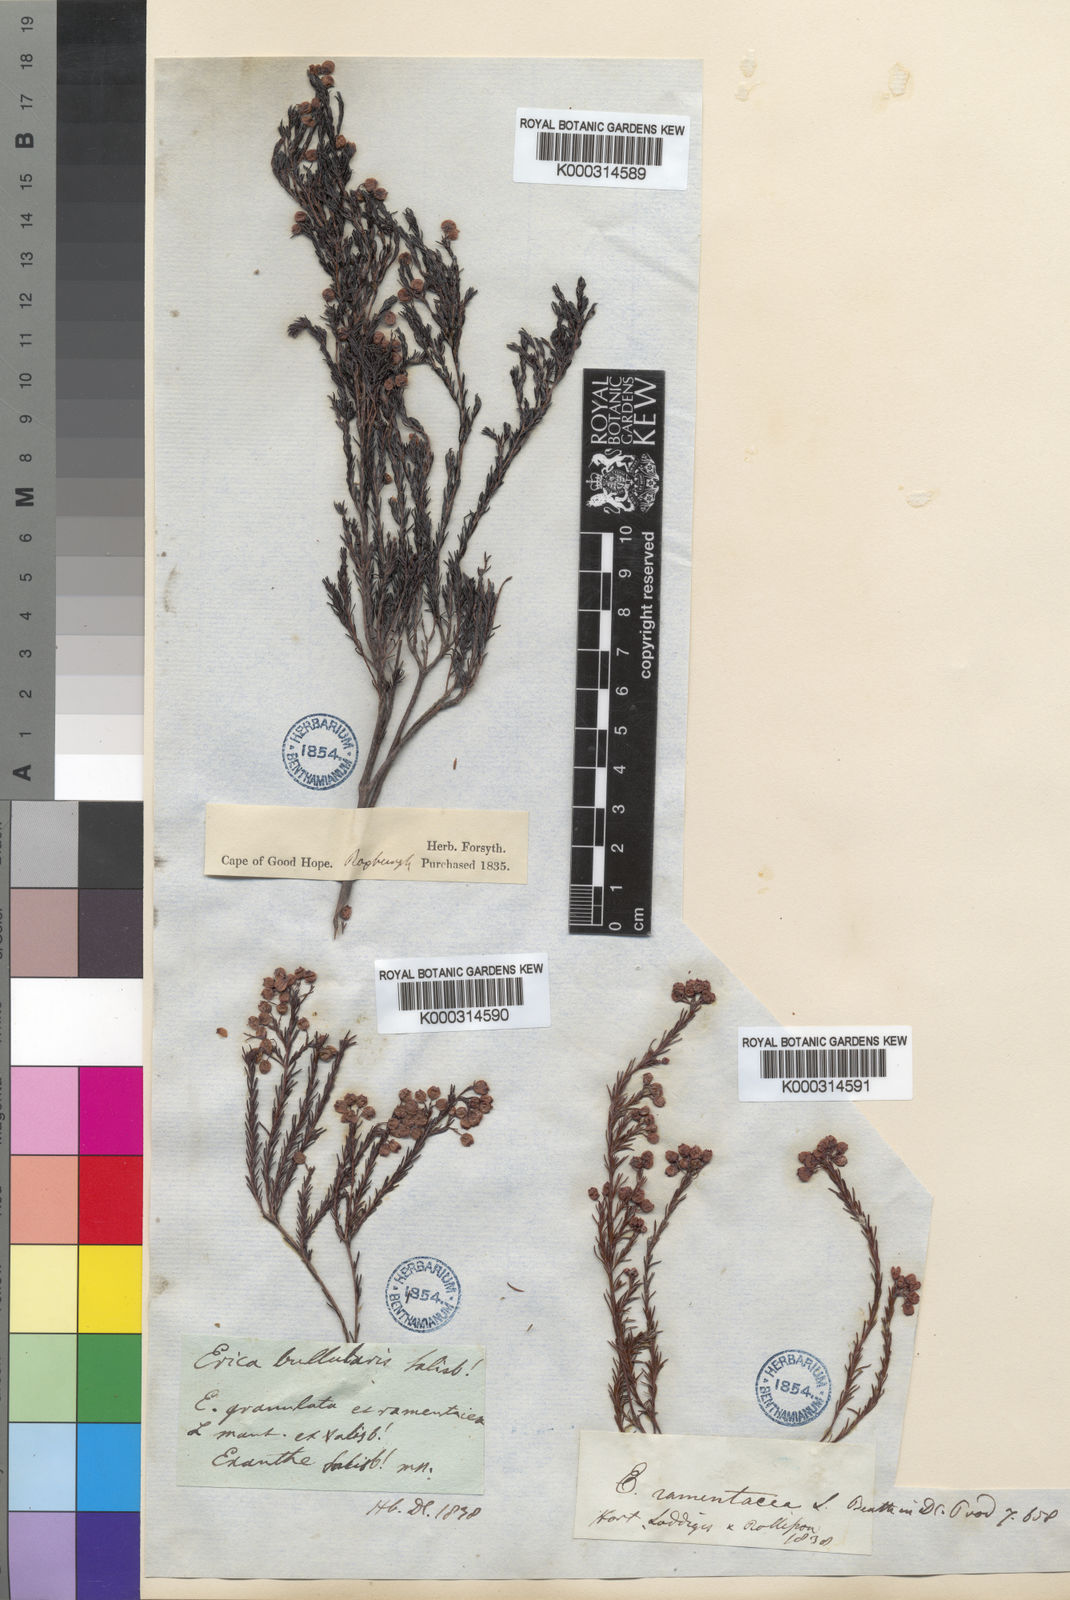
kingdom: Plantae
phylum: Tracheophyta
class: Magnoliopsida
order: Ericales
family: Ericaceae
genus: Erica
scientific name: Erica
